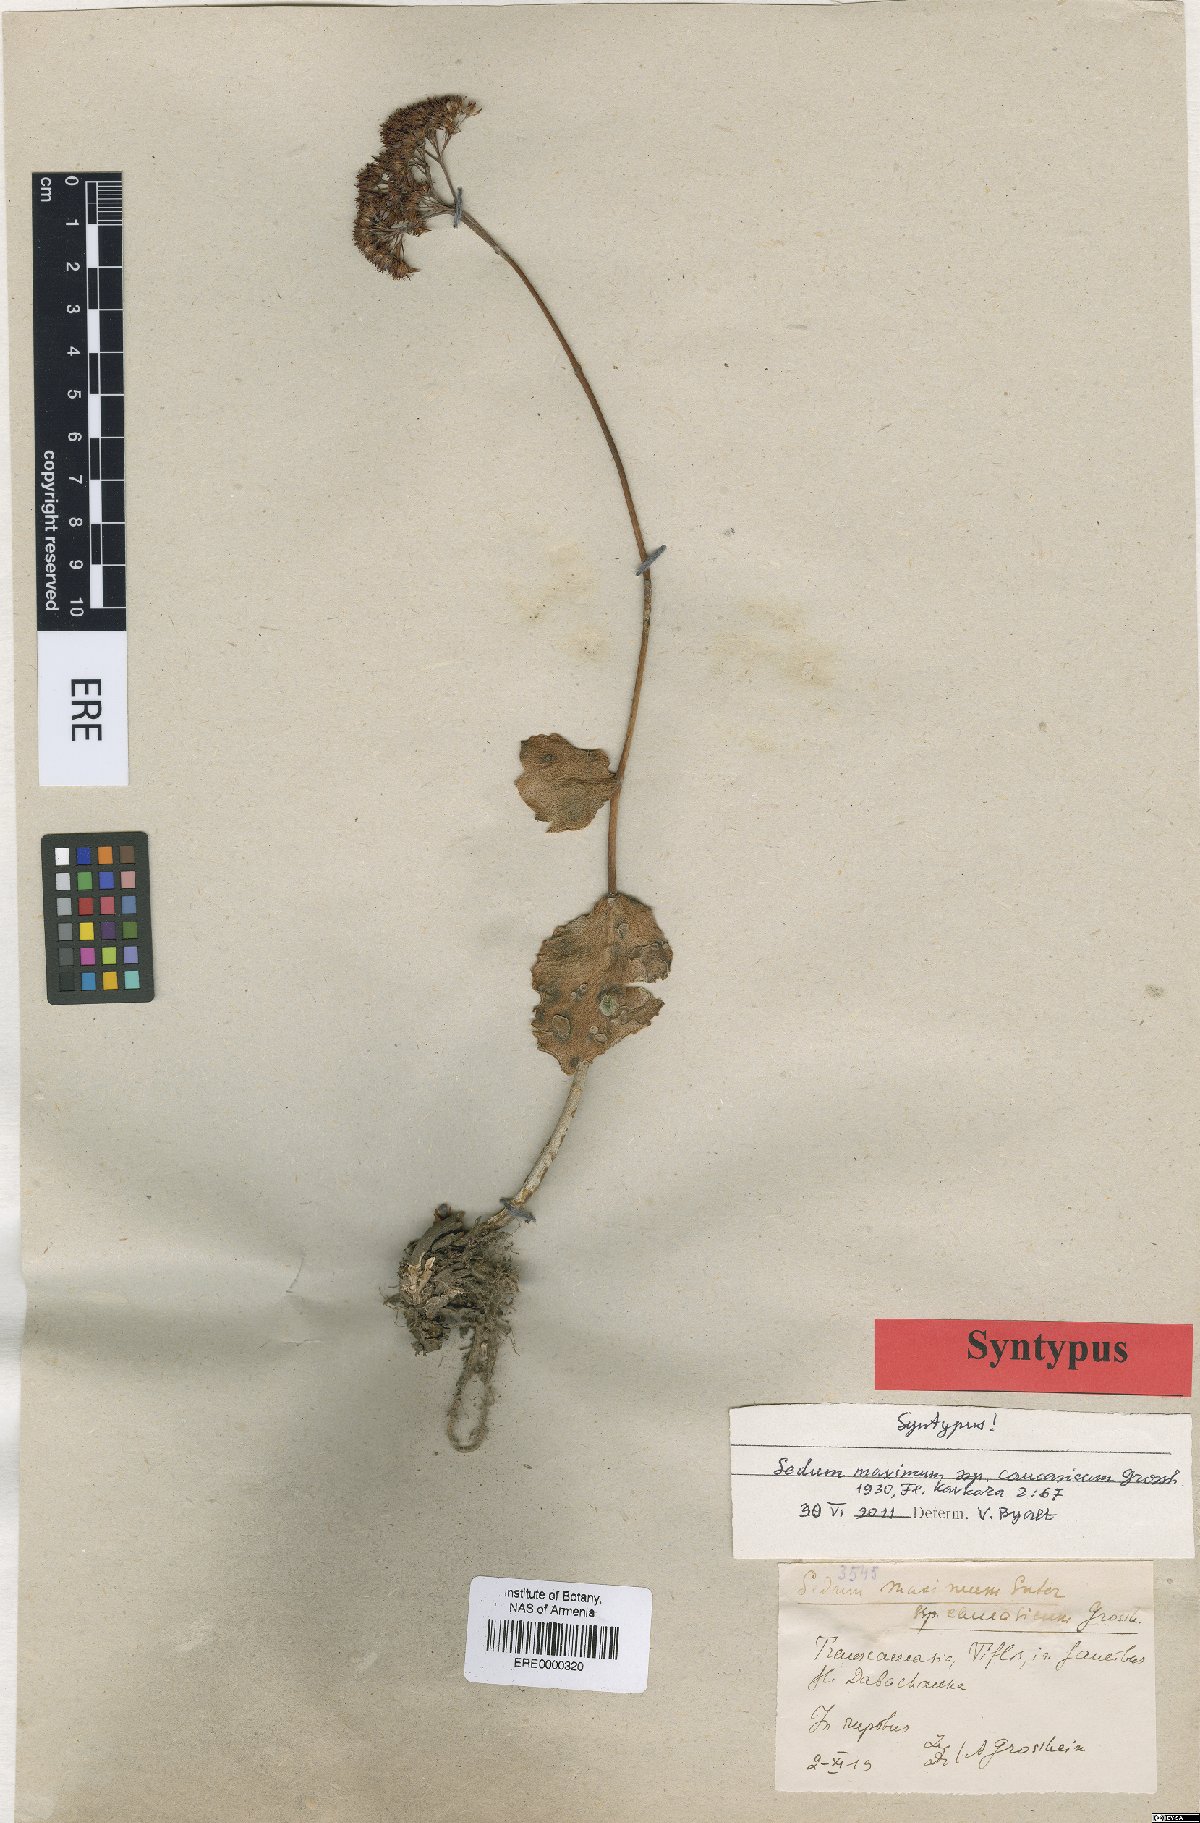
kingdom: Plantae
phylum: Tracheophyta
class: Magnoliopsida
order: Saxifragales
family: Crassulaceae
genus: Hylotelephium
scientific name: Hylotelephium maximum
